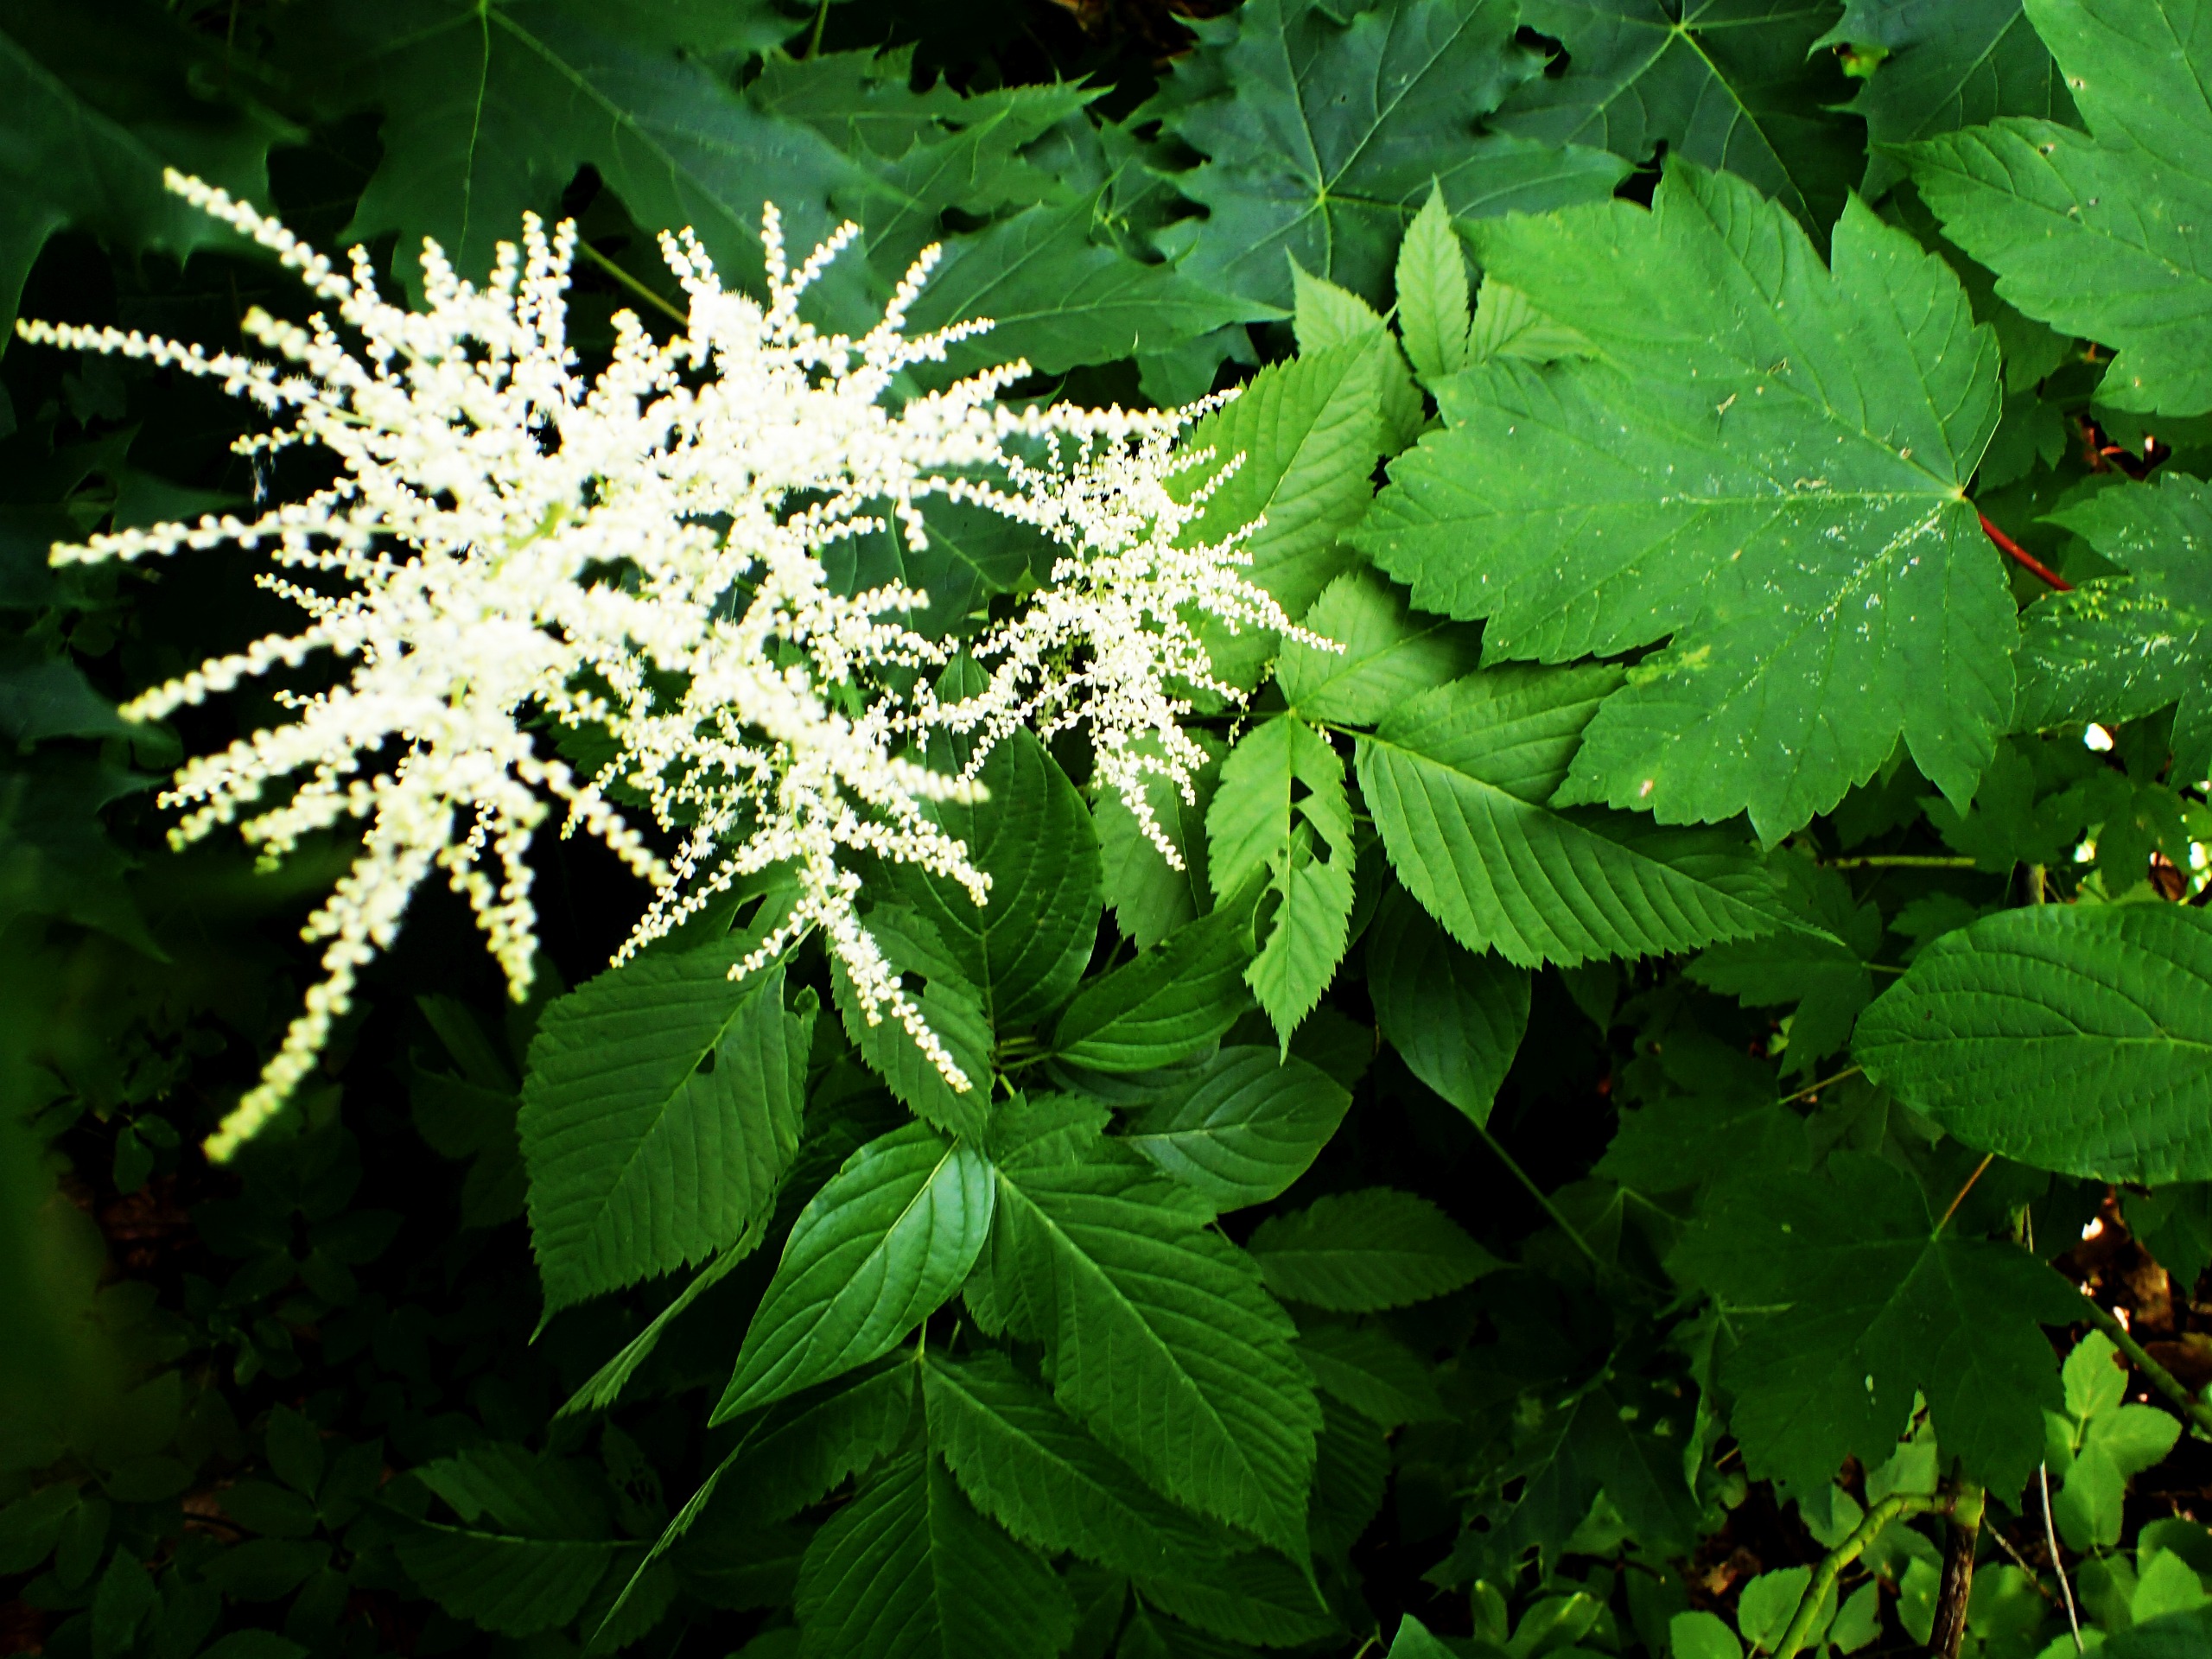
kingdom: Plantae
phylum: Tracheophyta
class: Magnoliopsida
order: Rosales
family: Rosaceae
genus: Aruncus
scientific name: Aruncus dioicus
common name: Fjerbusk
